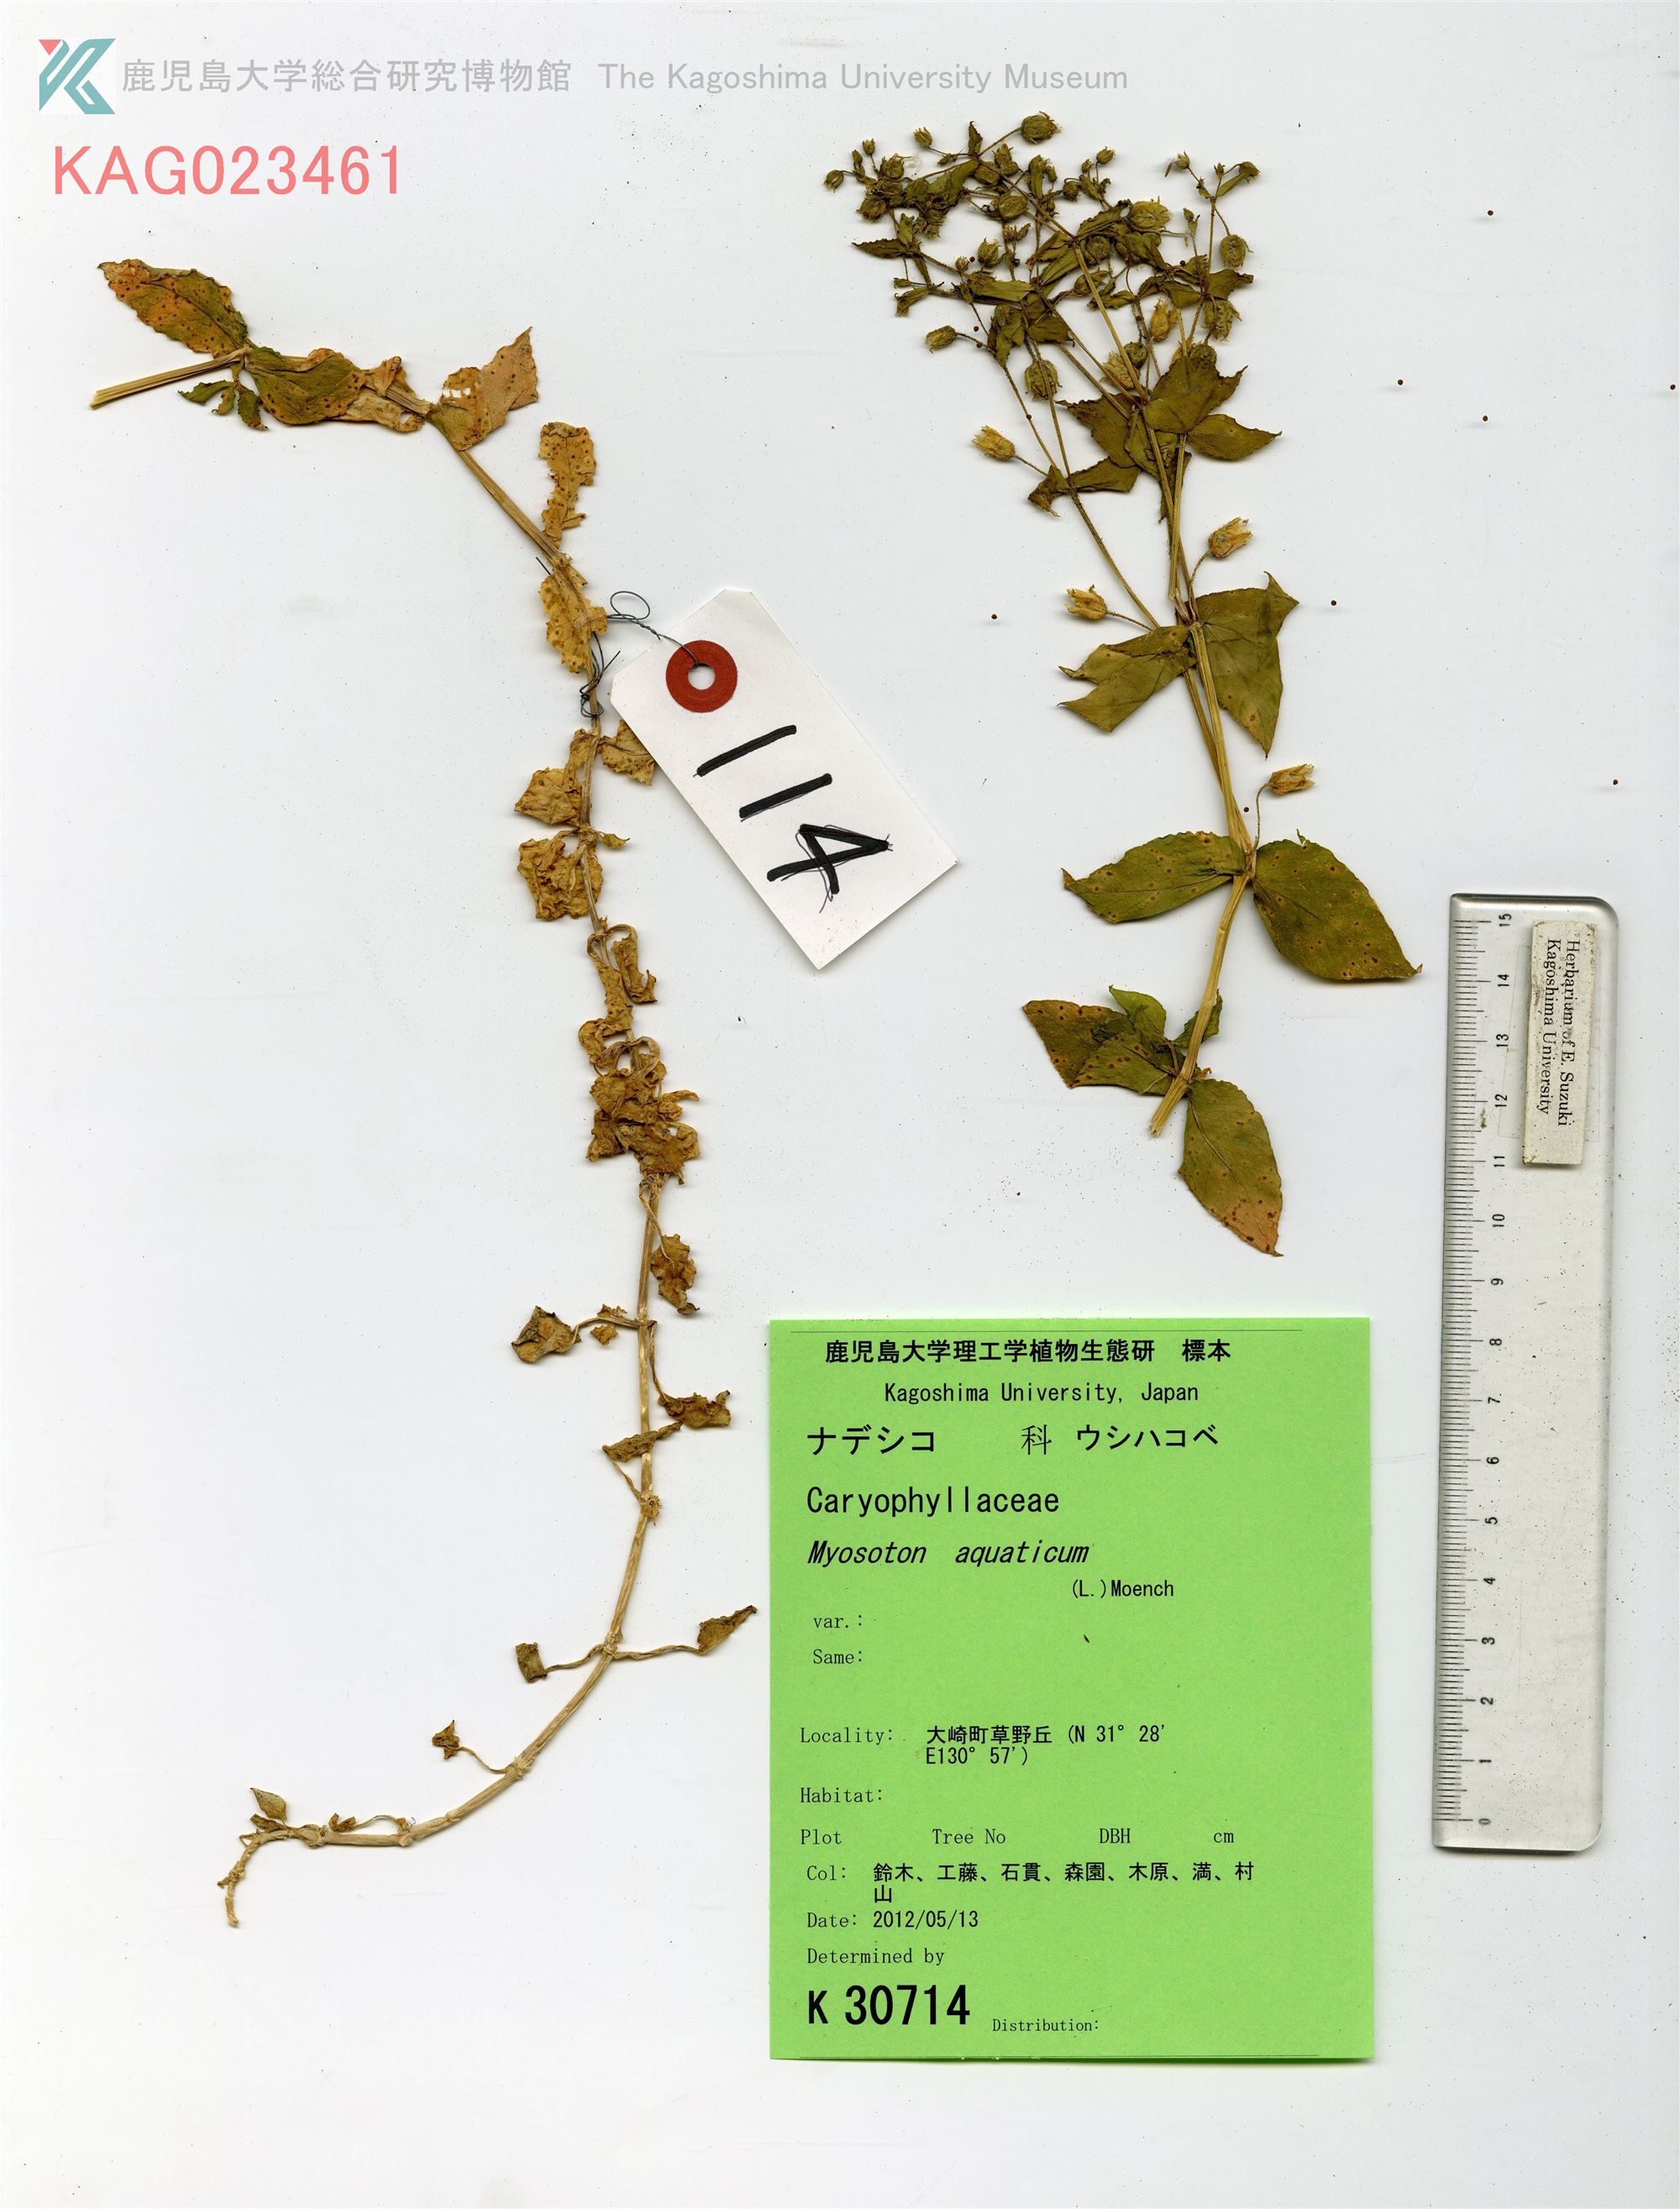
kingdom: Plantae
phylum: Tracheophyta
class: Magnoliopsida
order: Caryophyllales
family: Caryophyllaceae
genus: Stellaria
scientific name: Stellaria aquatica
